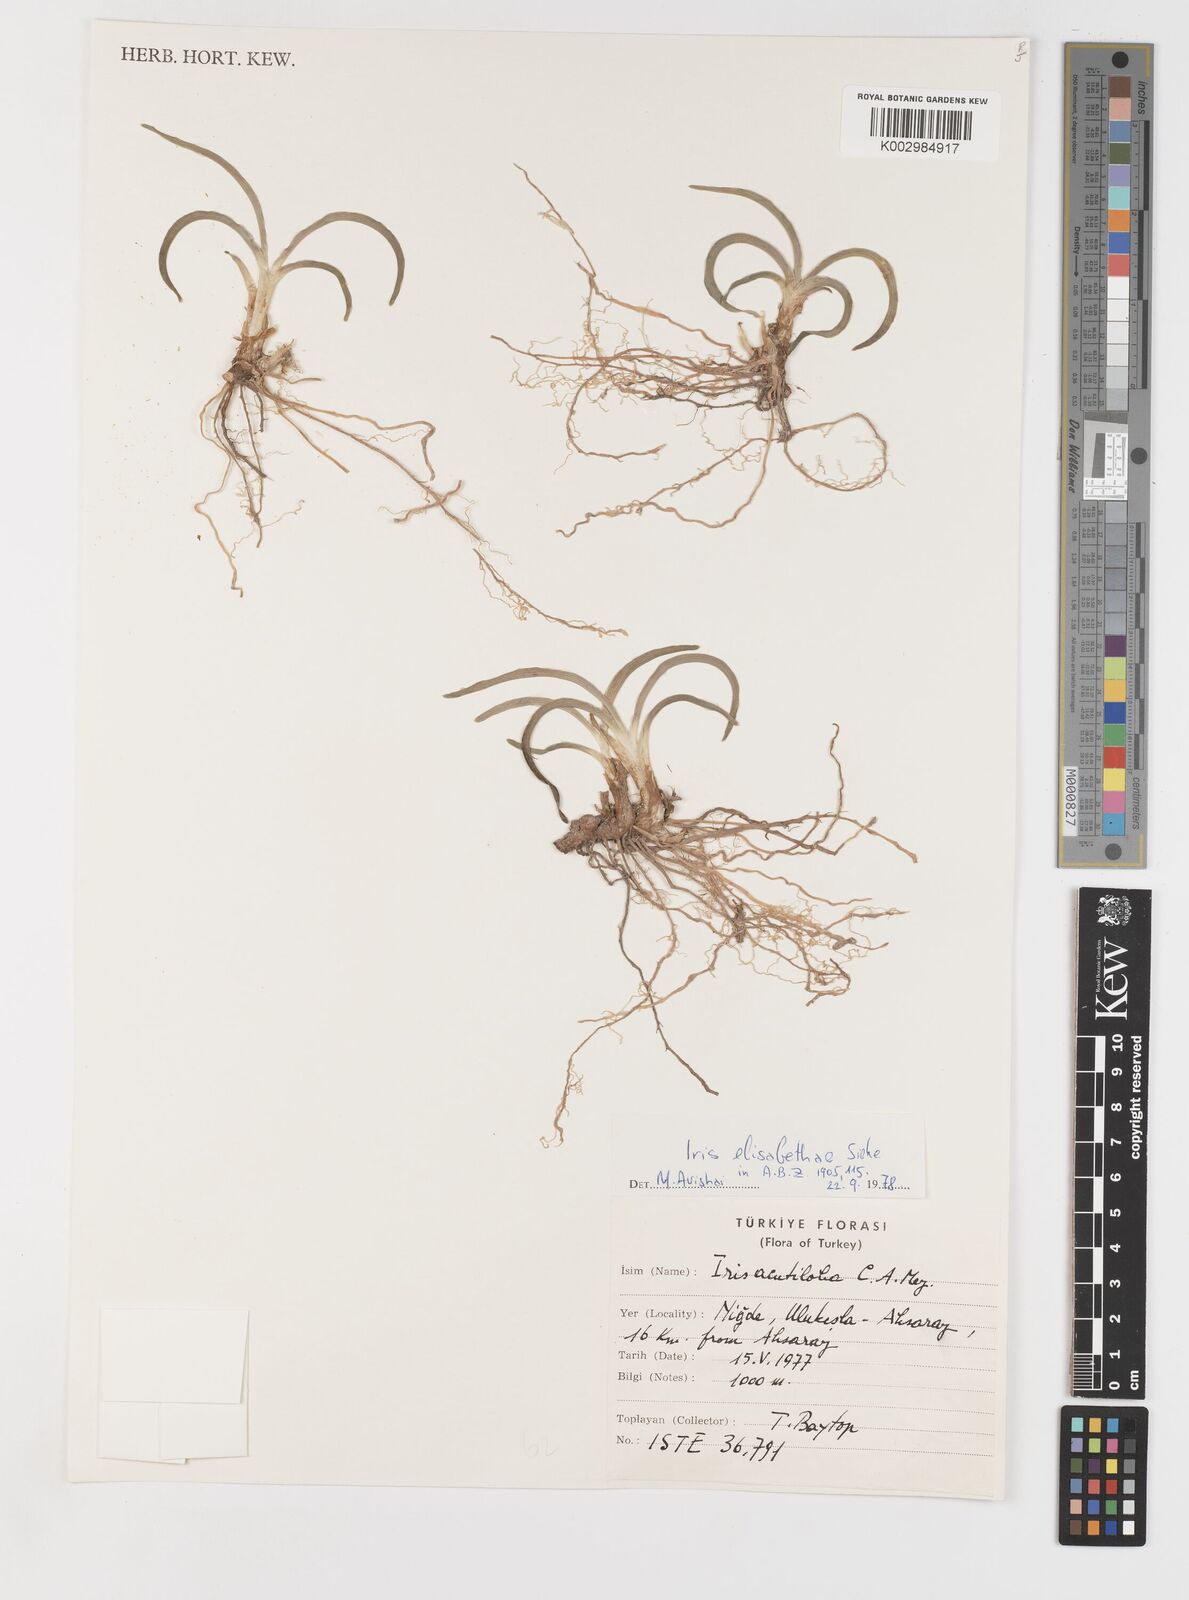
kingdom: Plantae
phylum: Tracheophyta
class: Liliopsida
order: Asparagales
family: Iridaceae
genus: Iris
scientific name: Iris sprengeri
